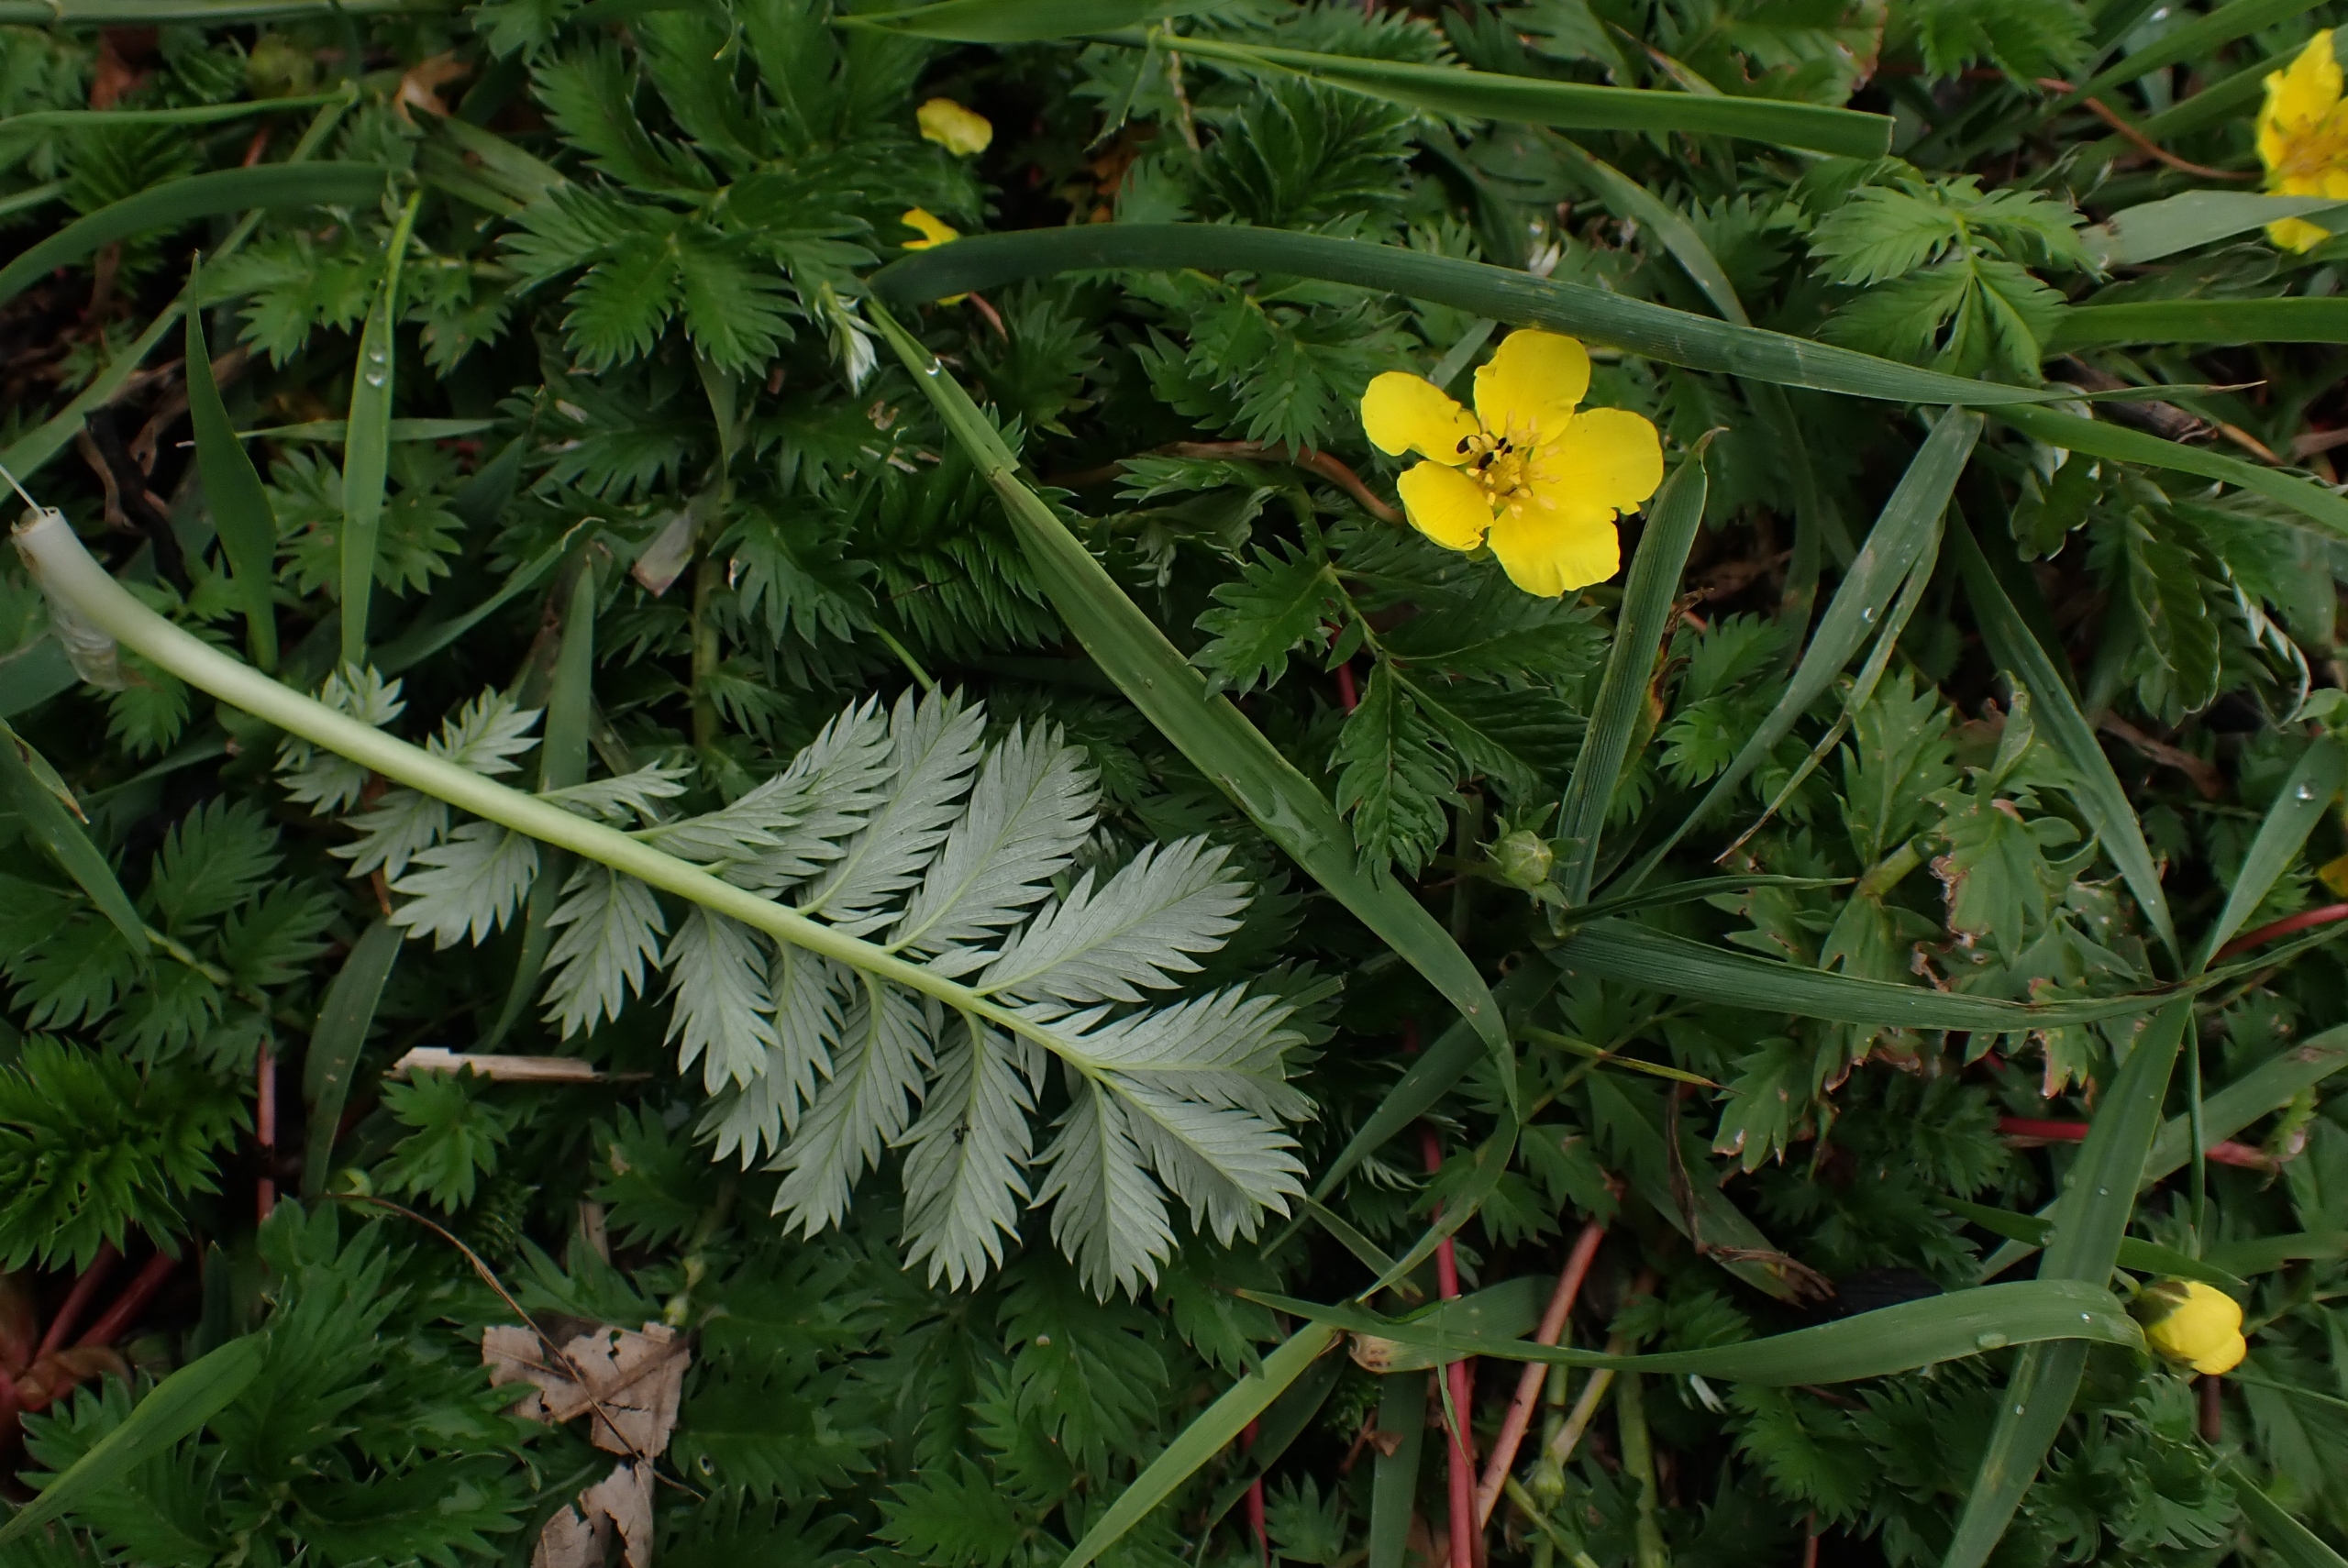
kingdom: Plantae
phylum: Tracheophyta
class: Magnoliopsida
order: Rosales
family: Rosaceae
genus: Argentina
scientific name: Argentina anserina
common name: Gåsepotentil
